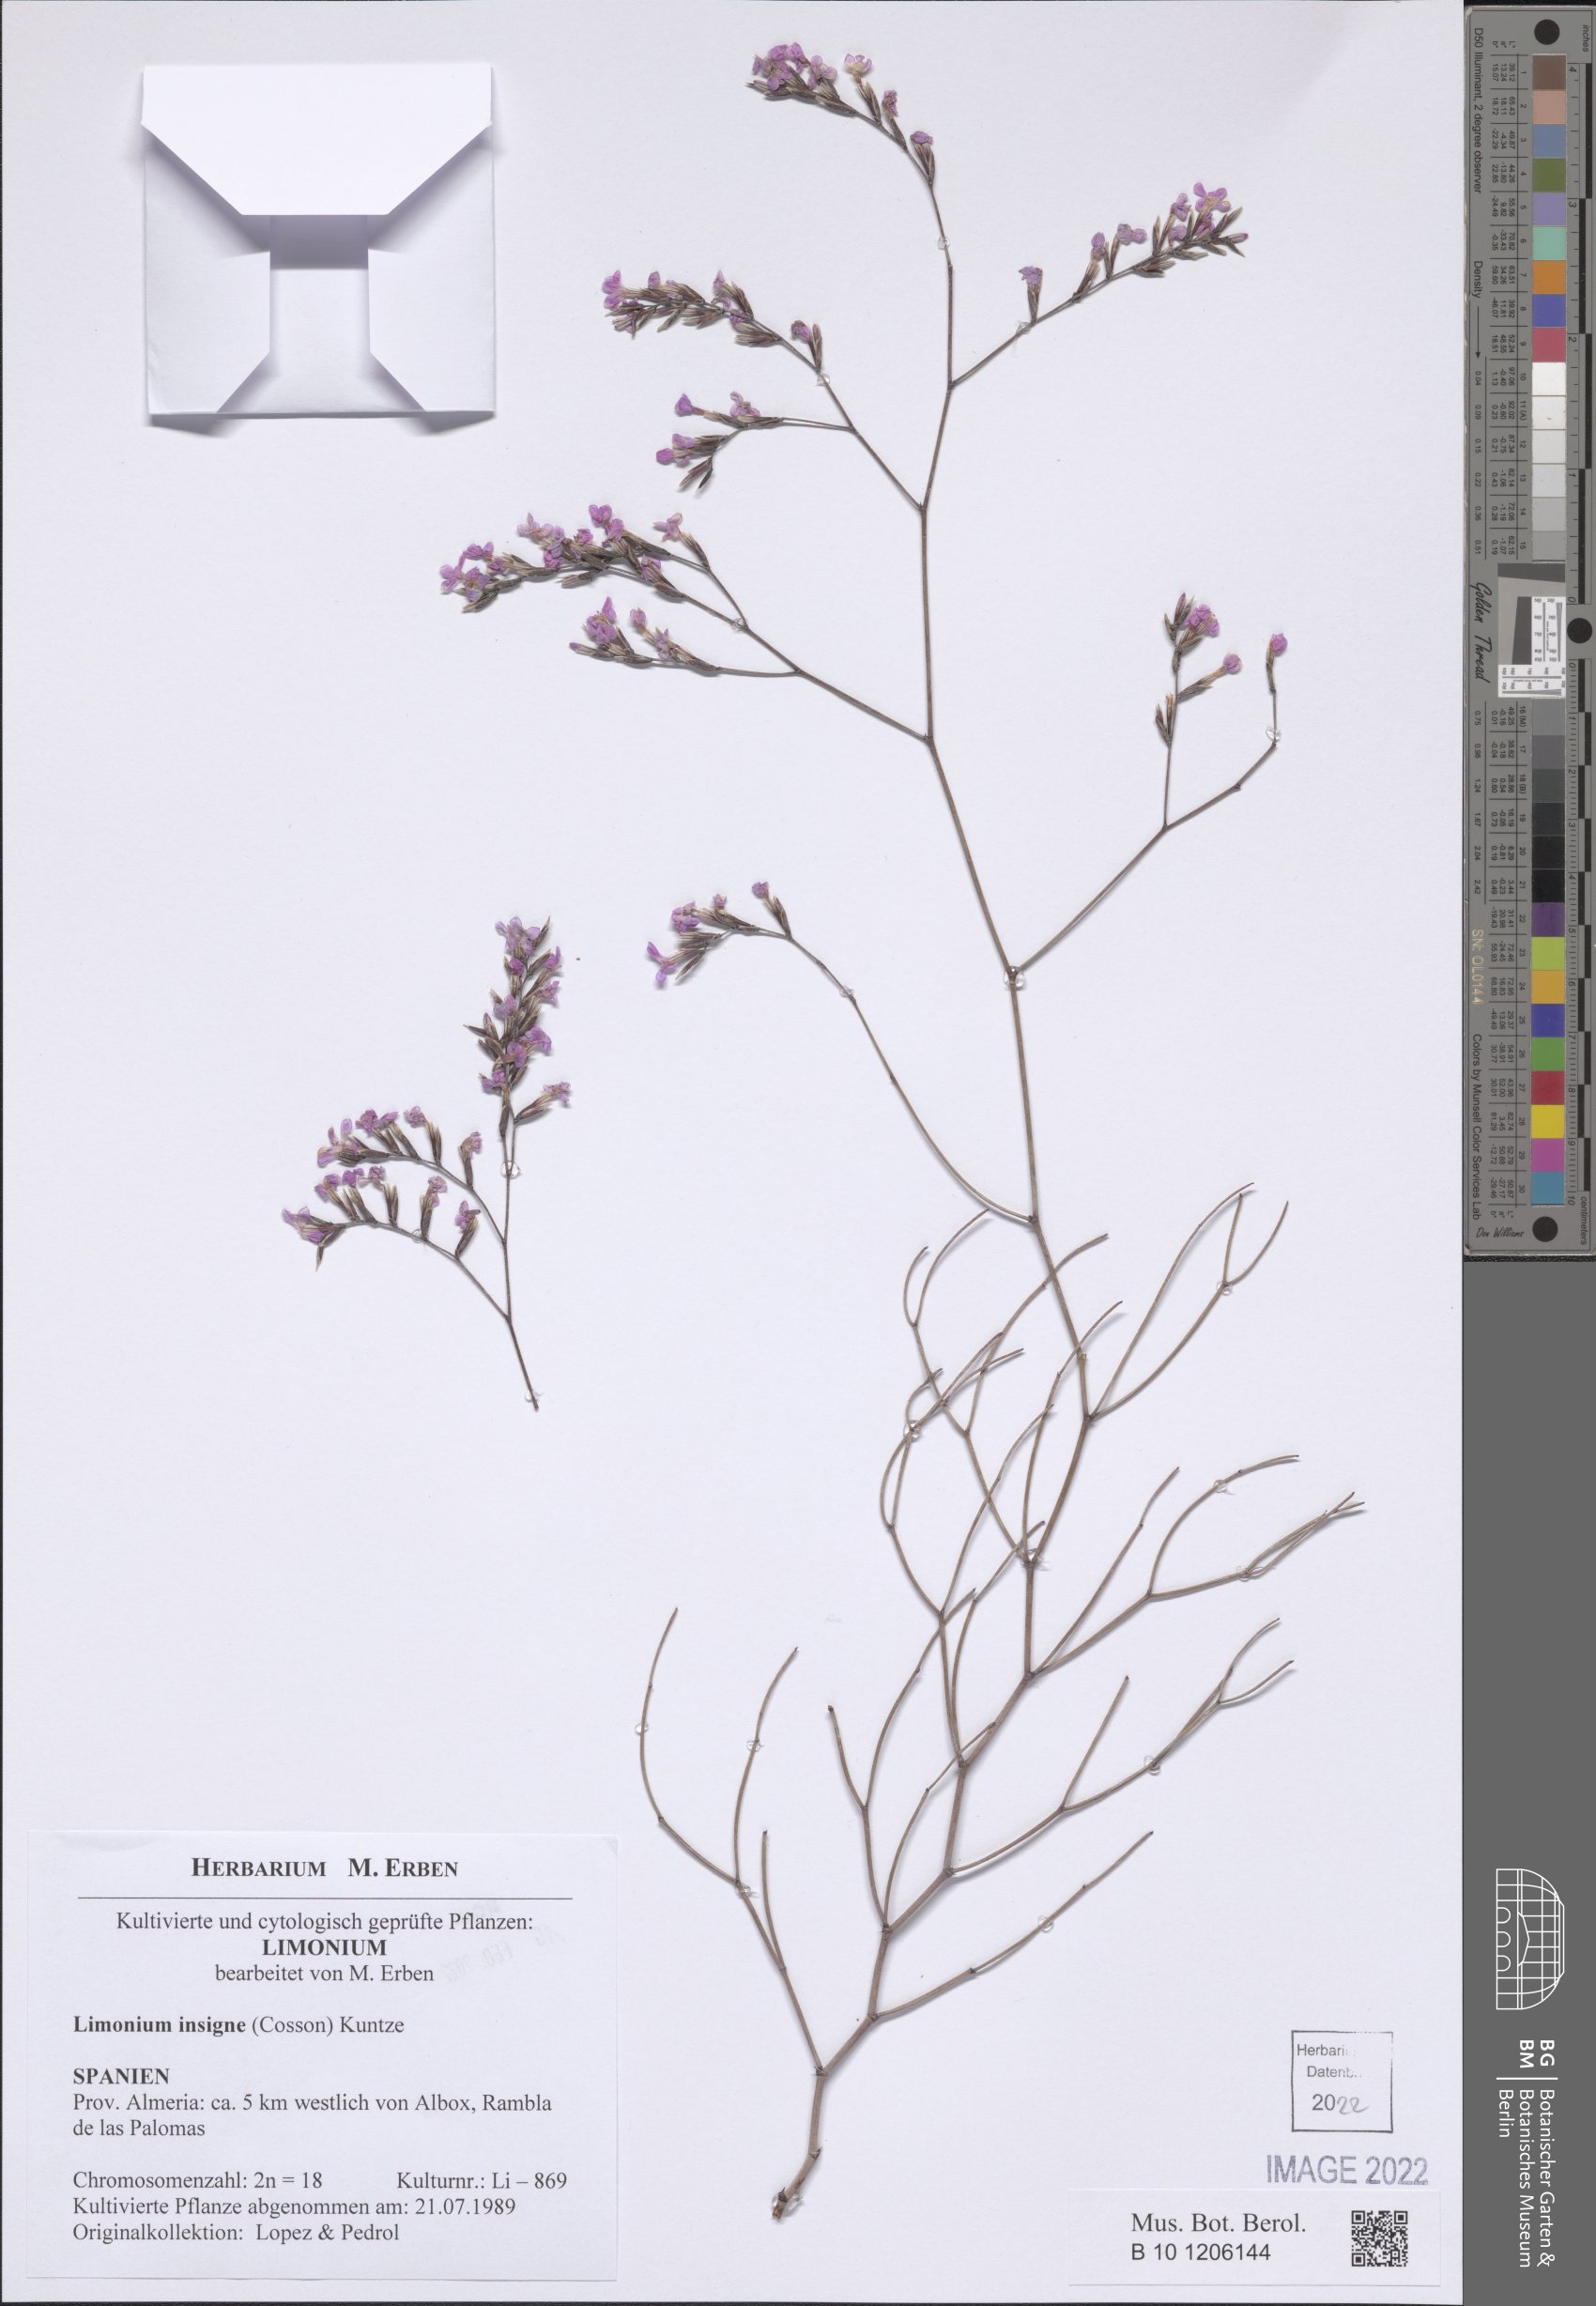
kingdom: Plantae
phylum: Tracheophyta
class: Magnoliopsida
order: Caryophyllales
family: Plumbaginaceae
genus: Limonium
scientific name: Limonium insigne
